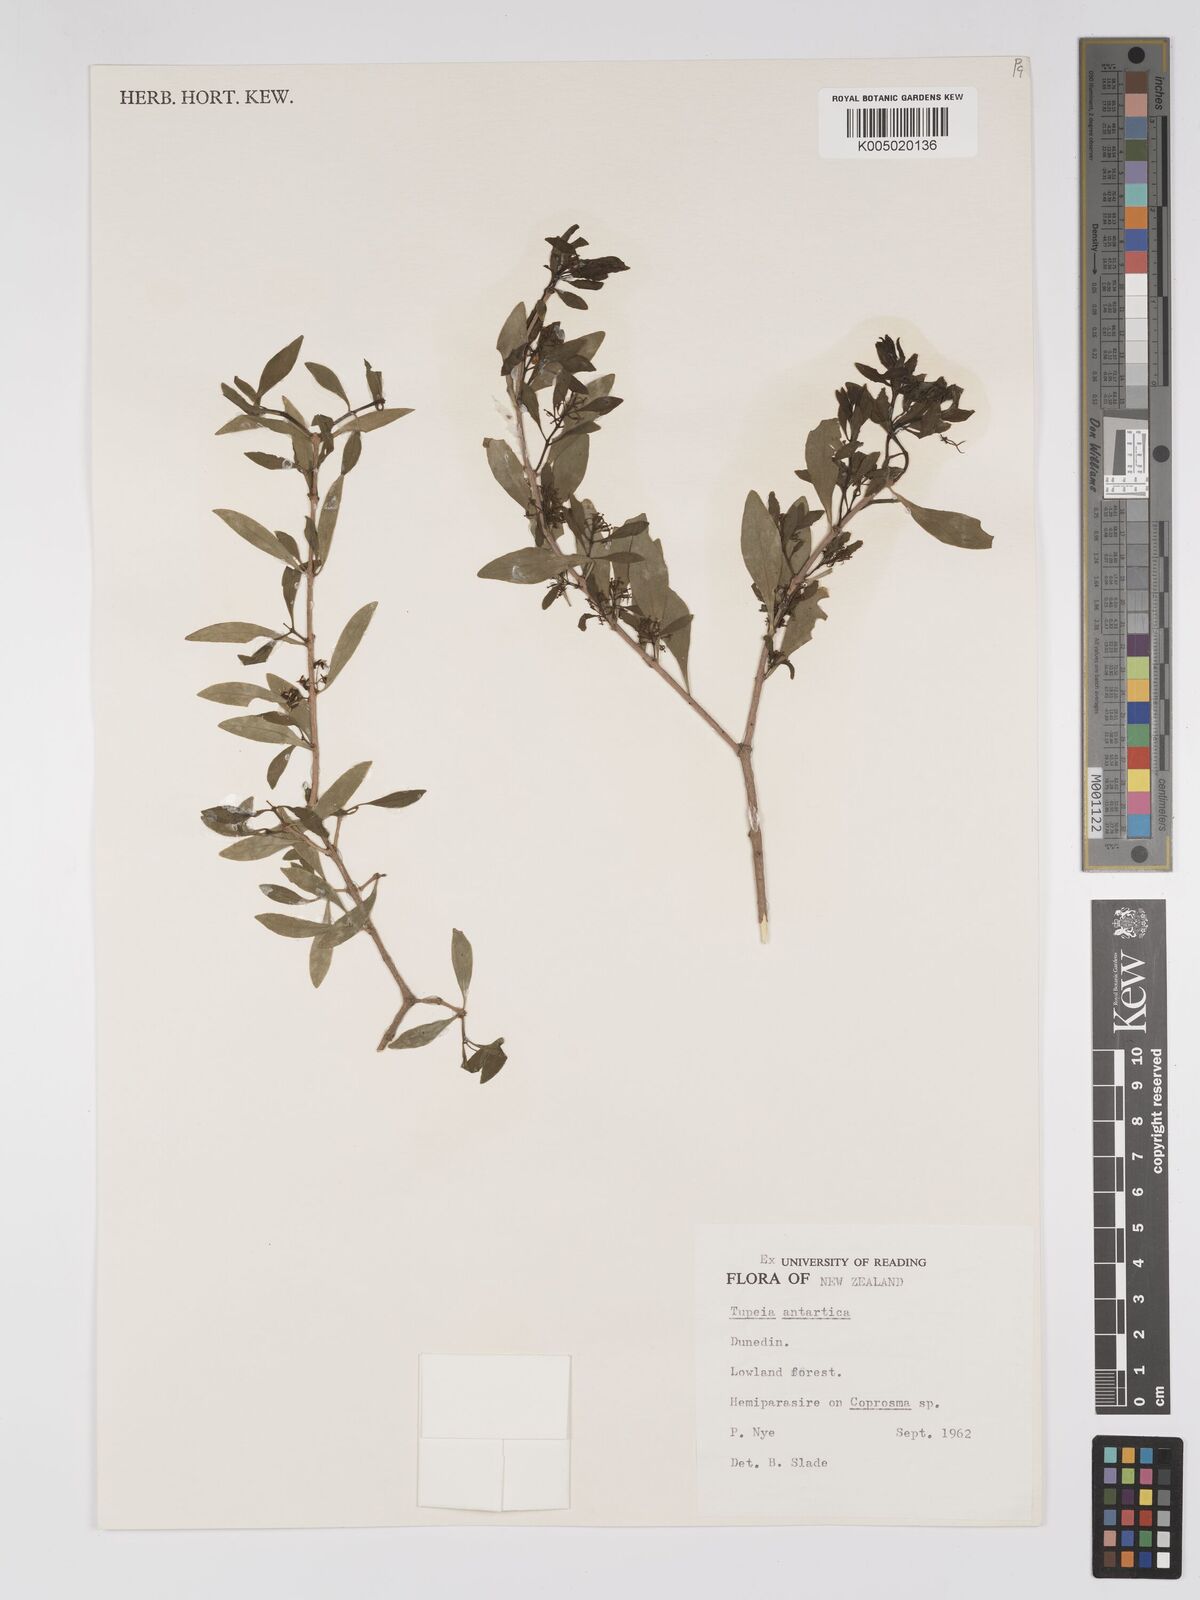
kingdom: Plantae
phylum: Tracheophyta
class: Magnoliopsida
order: Santalales
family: Loranthaceae
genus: Tupeia
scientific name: Tupeia antarctica
